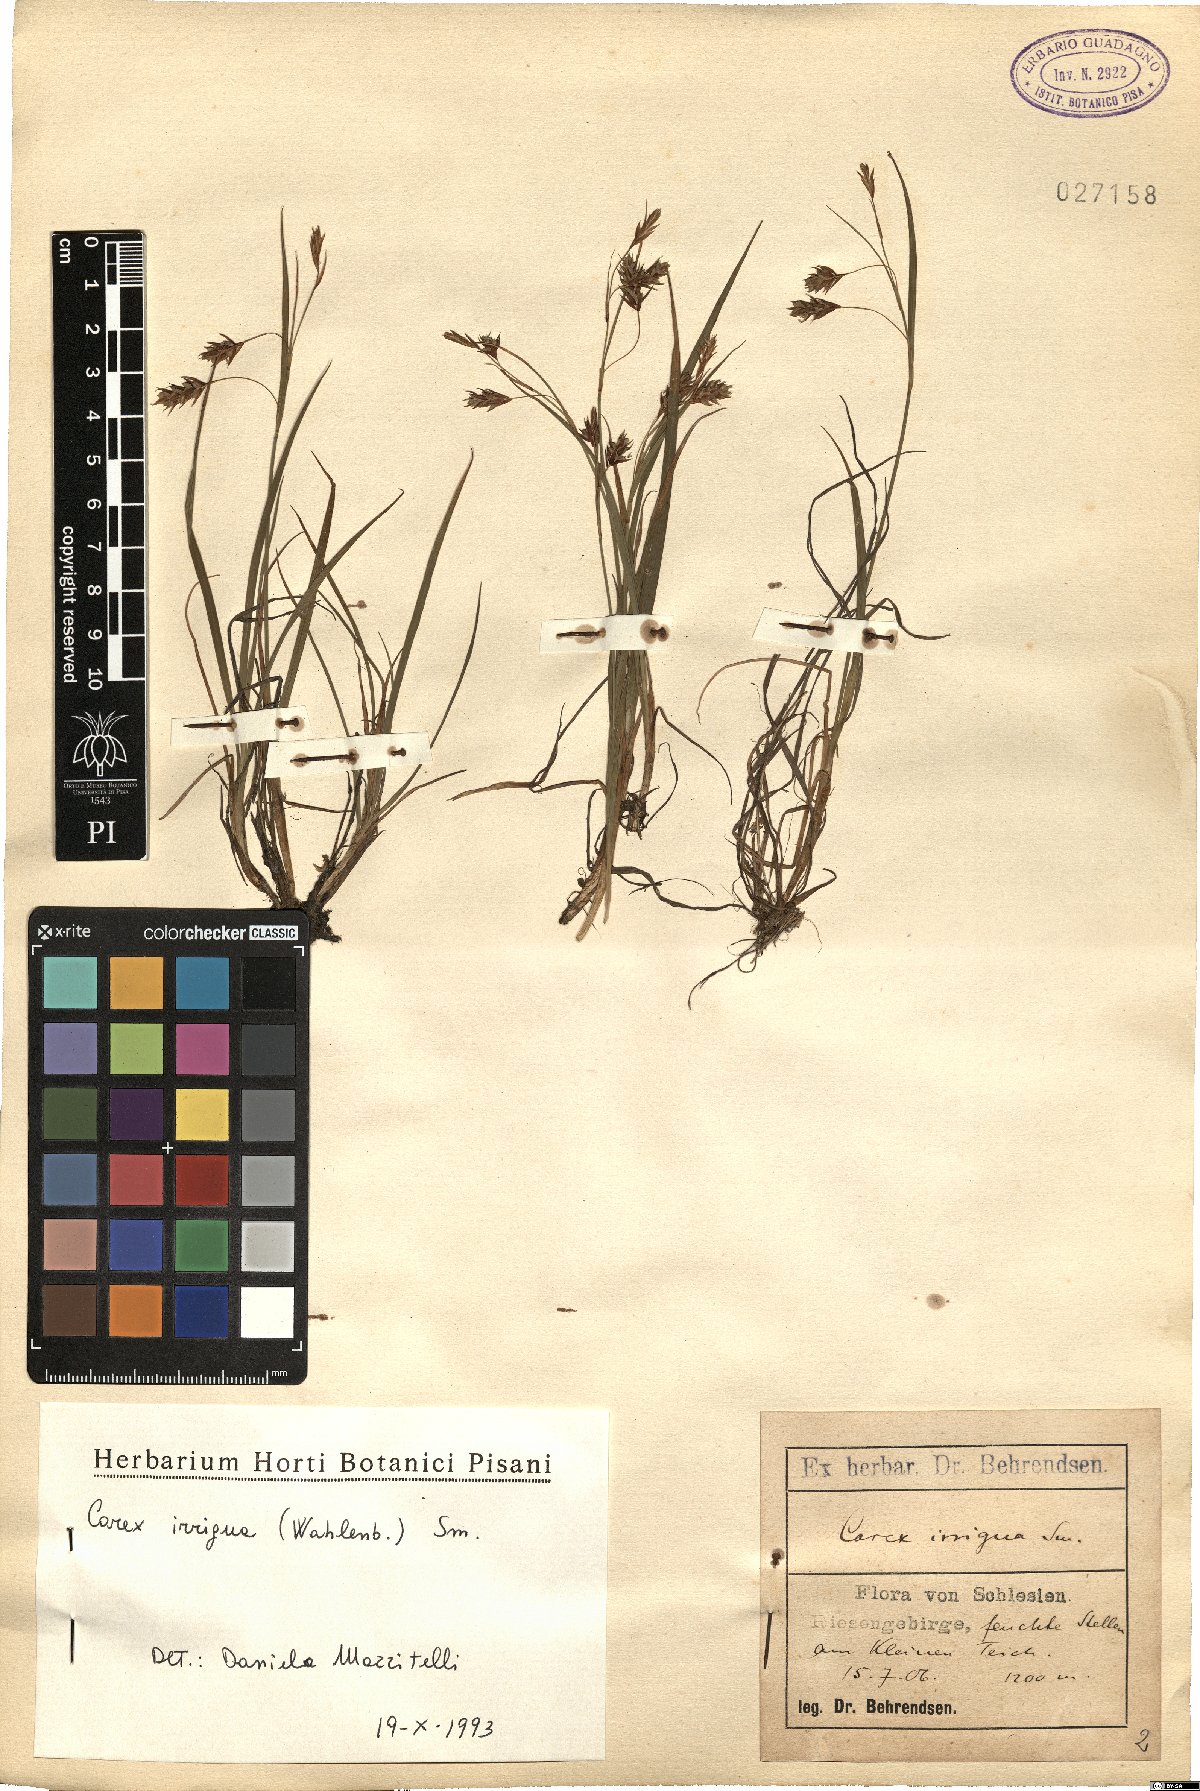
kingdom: Plantae
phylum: Tracheophyta
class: Liliopsida
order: Poales
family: Cyperaceae
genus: Carex
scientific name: Carex magellanica
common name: Bog sedge
